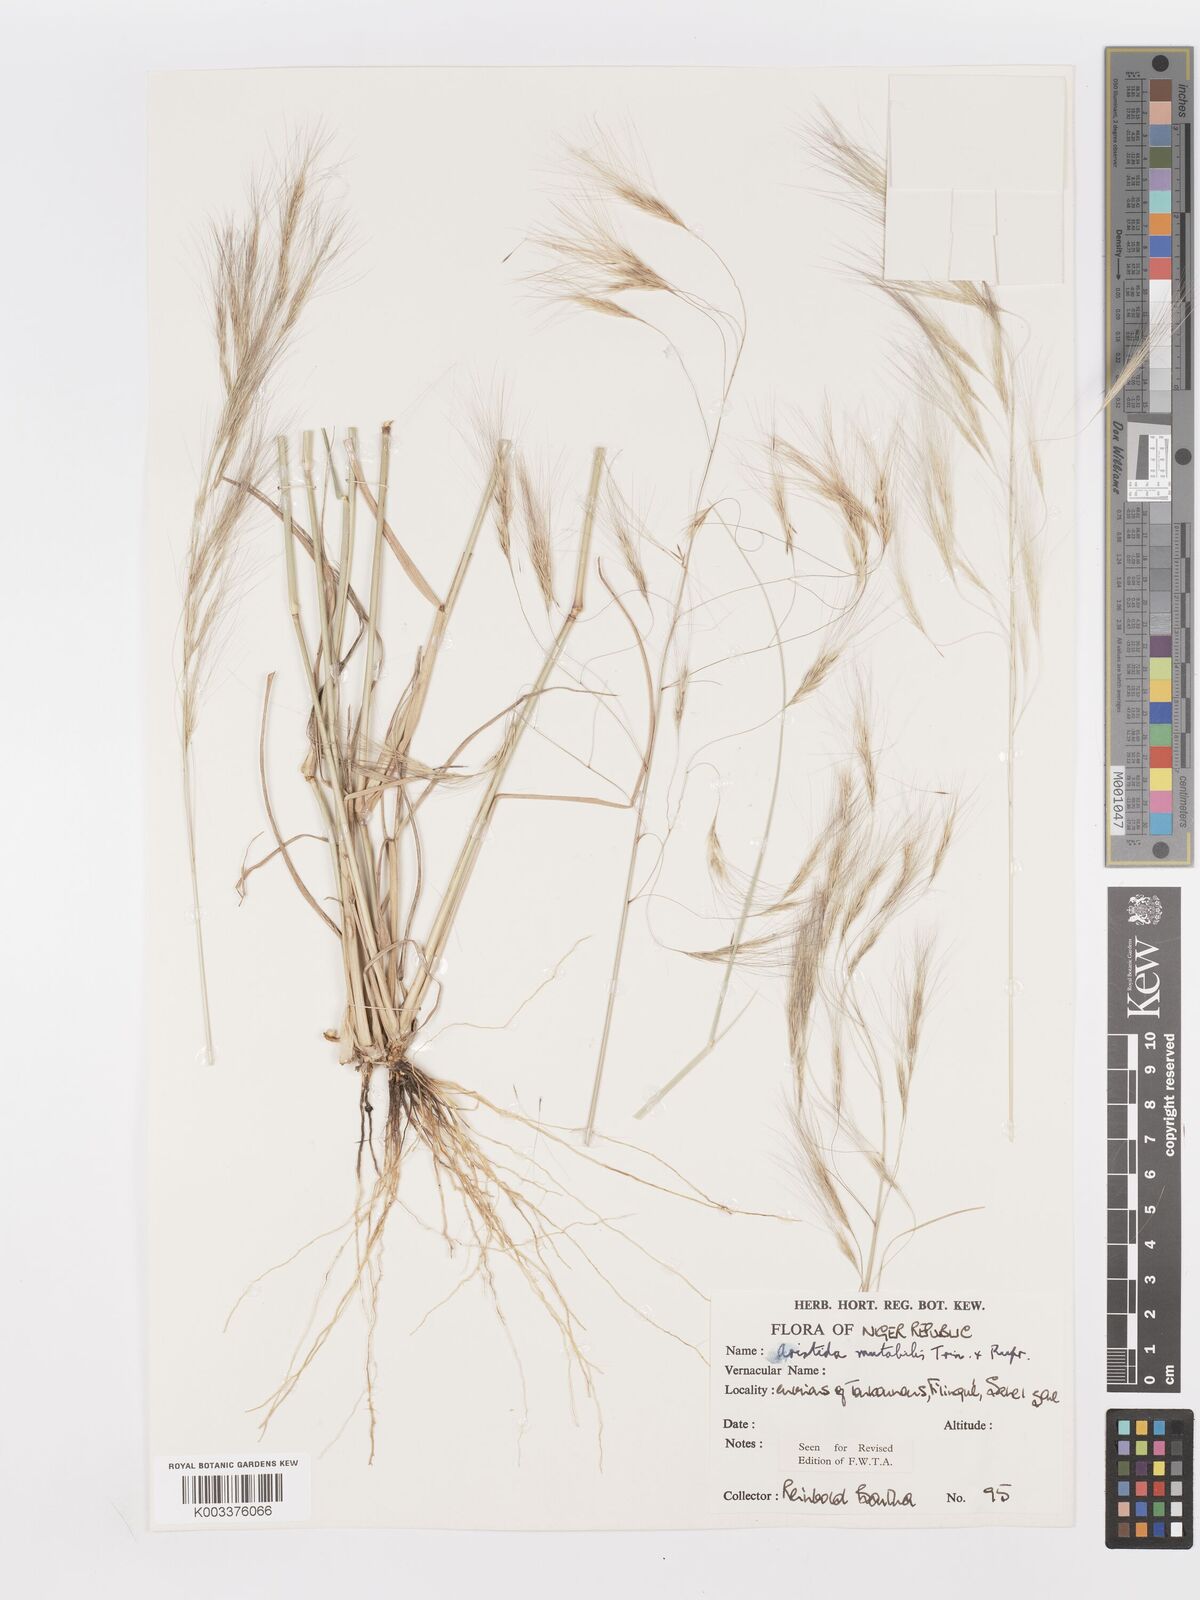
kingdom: Plantae
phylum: Tracheophyta
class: Liliopsida
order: Poales
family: Poaceae
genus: Aristida
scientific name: Aristida mutabilis
